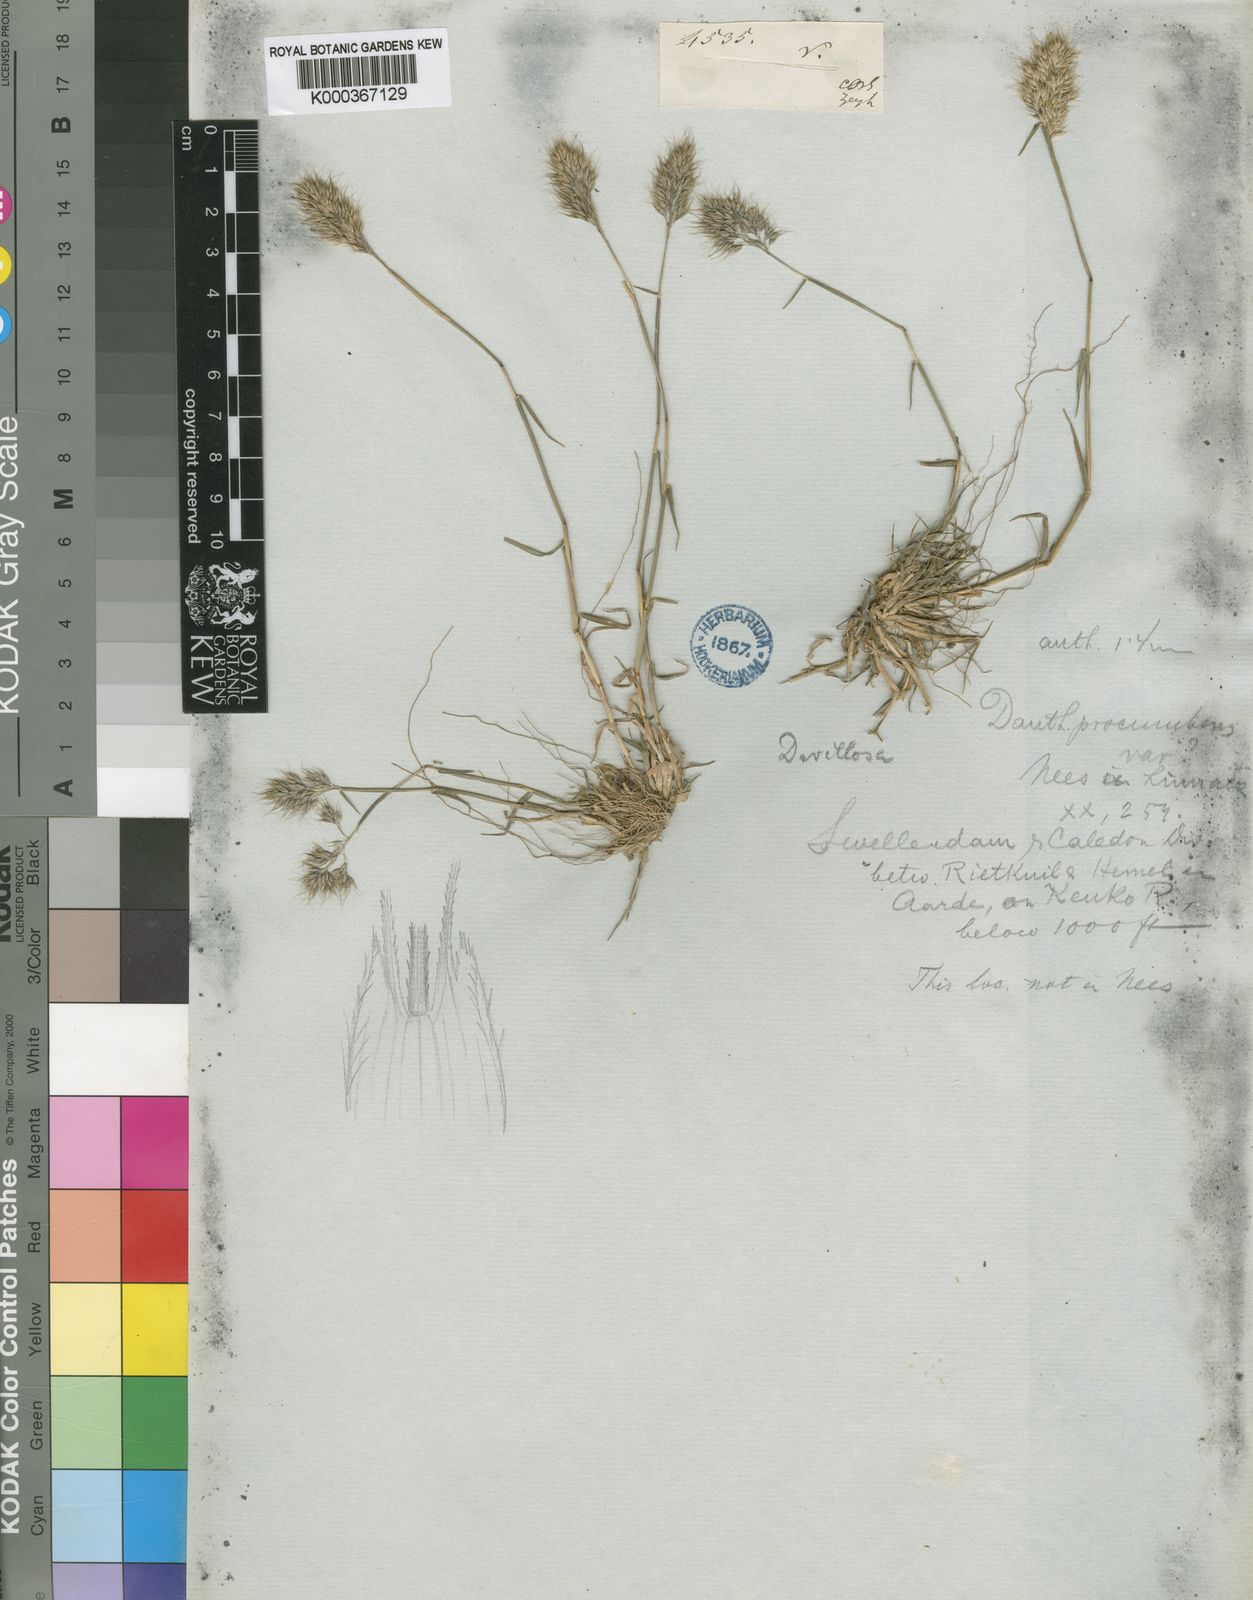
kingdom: Plantae
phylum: Tracheophyta
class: Liliopsida
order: Poales
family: Poaceae
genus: Pentameris
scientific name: Pentameris triseta
